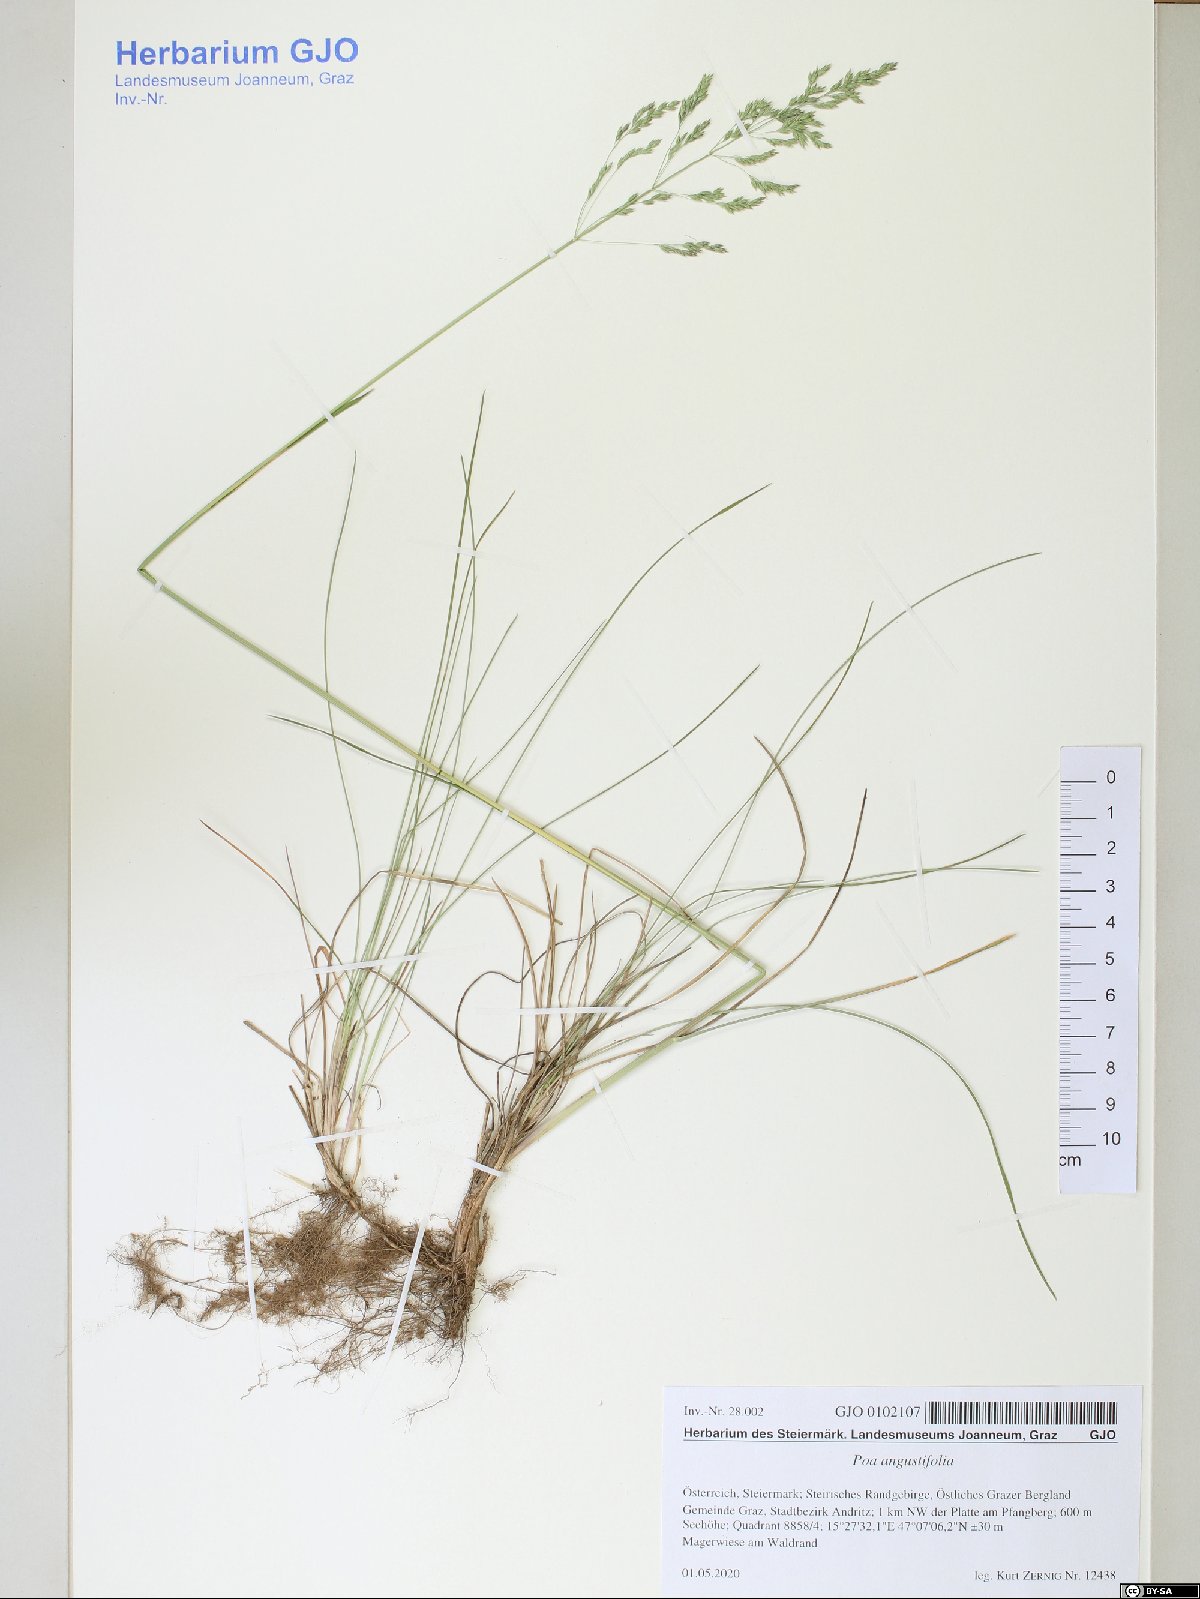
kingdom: Plantae
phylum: Tracheophyta
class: Liliopsida
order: Poales
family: Poaceae
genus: Poa
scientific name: Poa angustifolia
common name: Narrow-leaved meadow-grass
